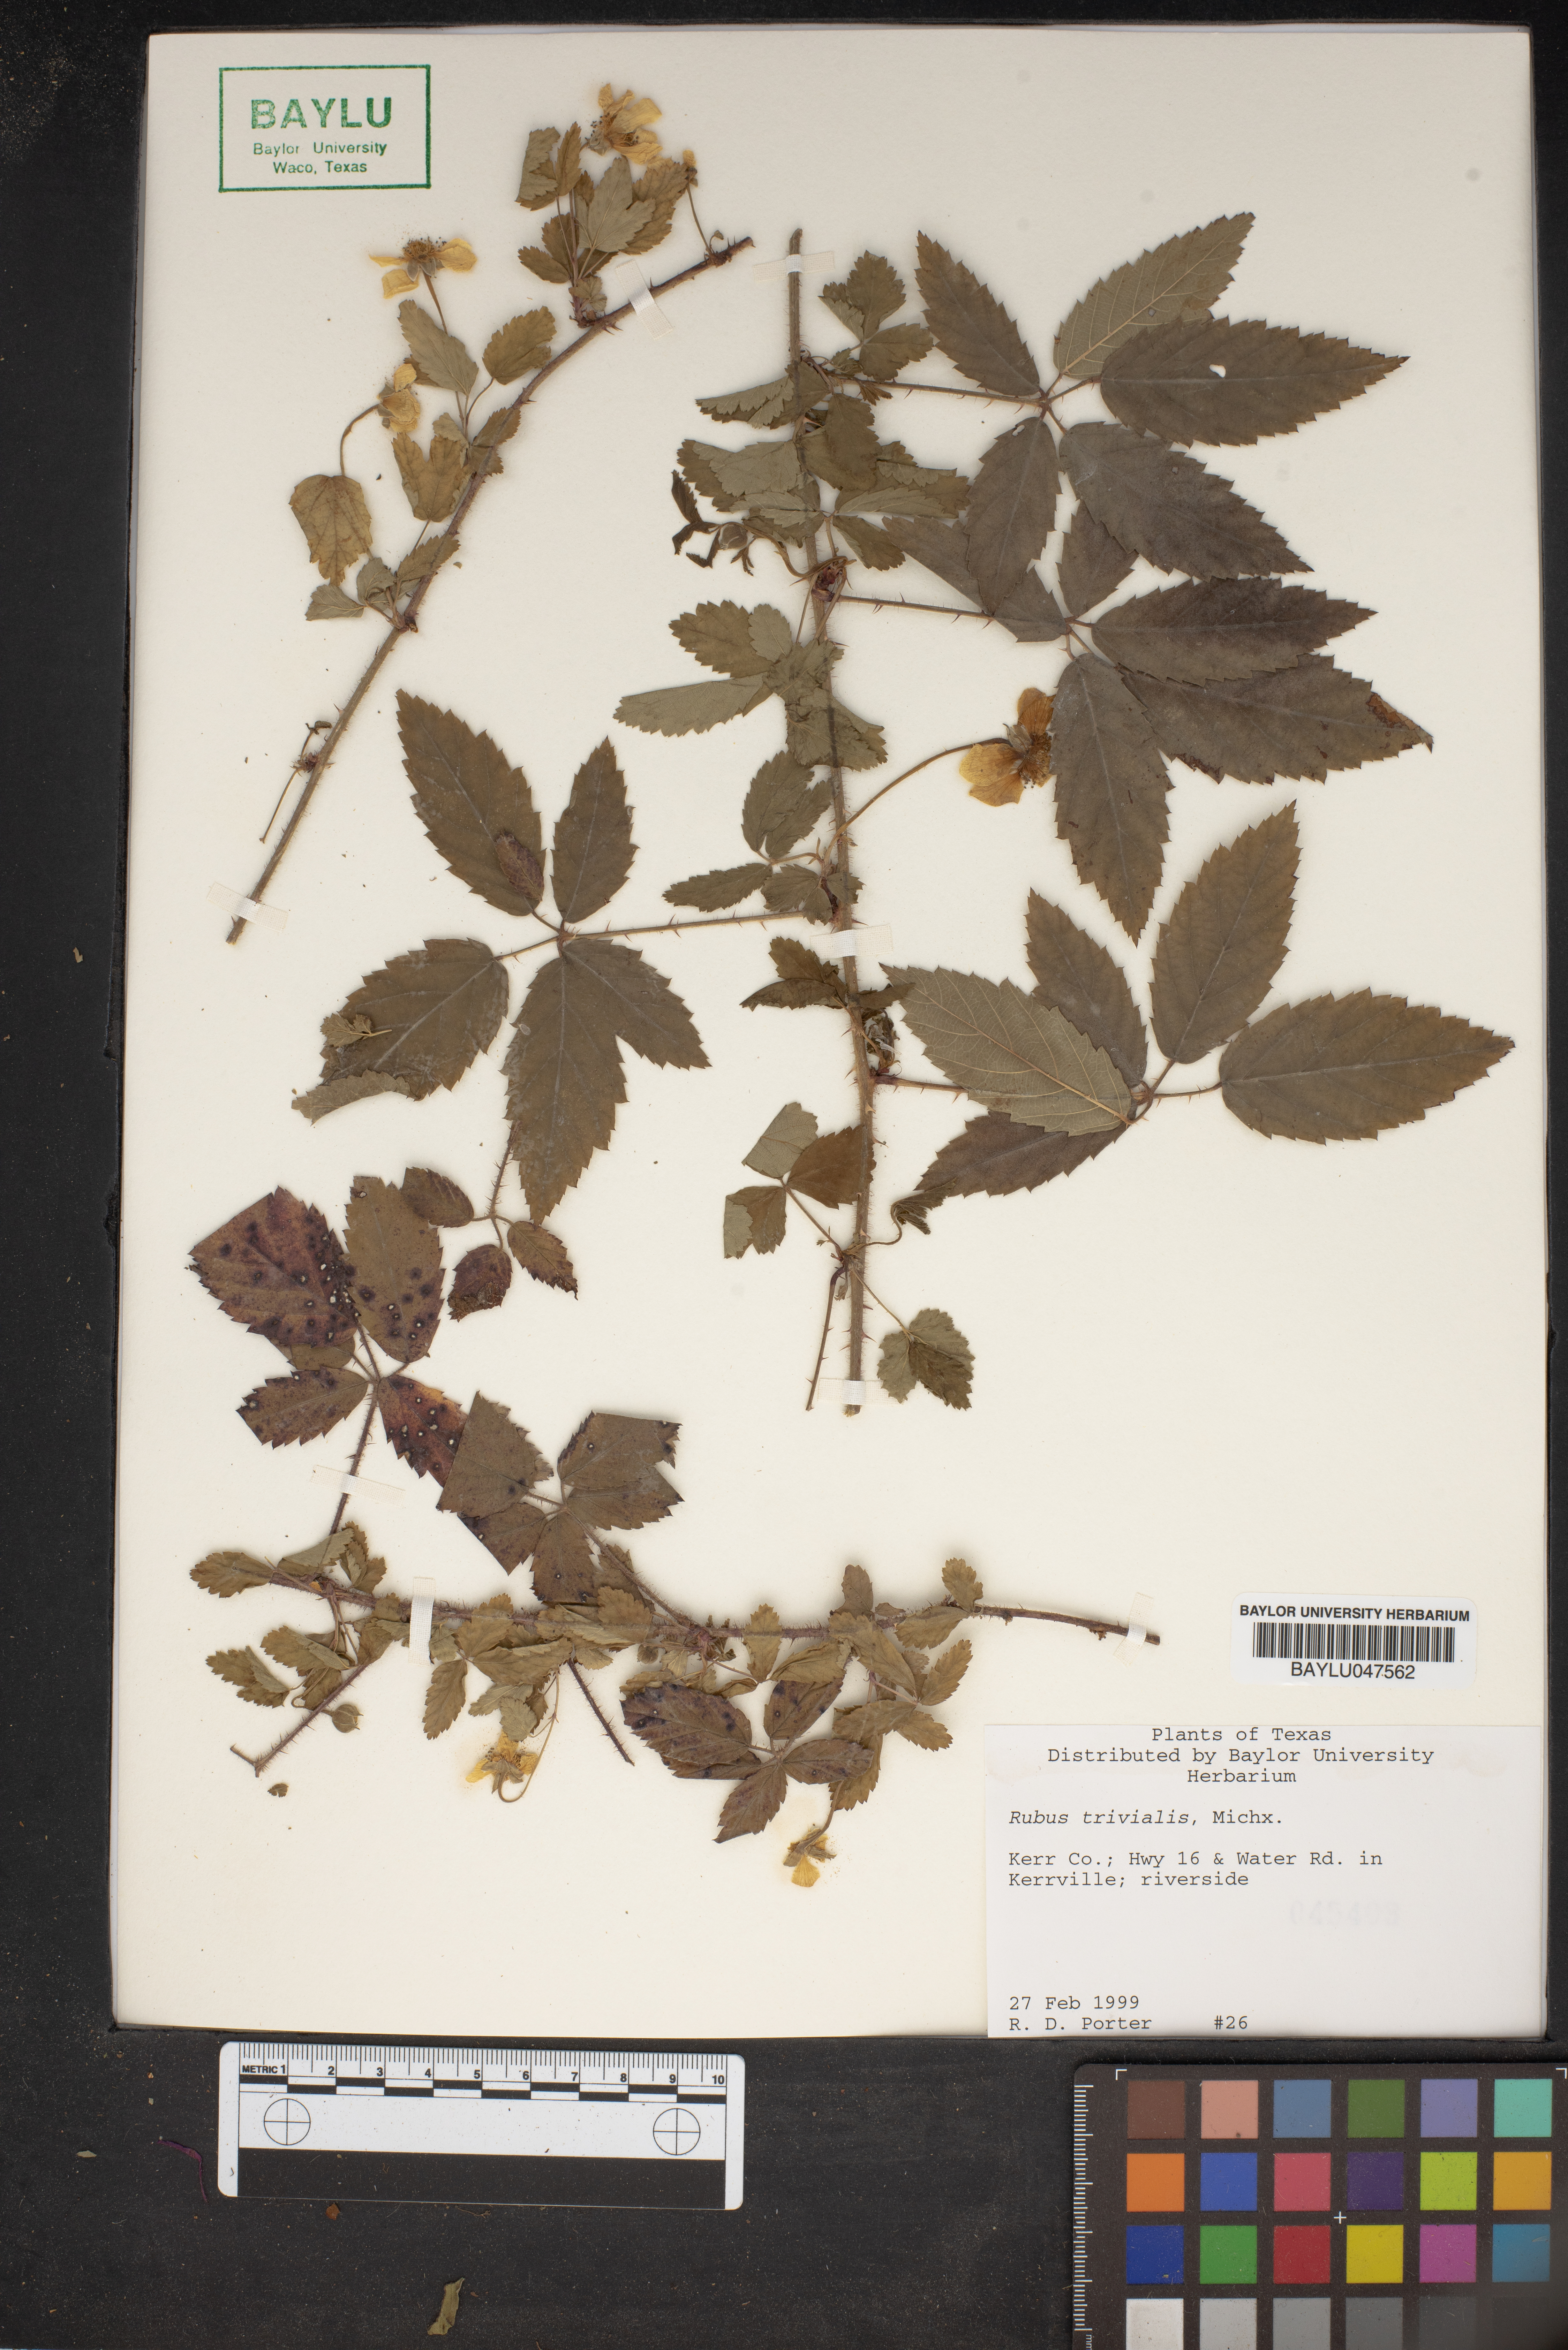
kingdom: Plantae
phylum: Tracheophyta
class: Magnoliopsida
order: Rosales
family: Rosaceae
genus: Rubus
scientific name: Rubus trivialis
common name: Southern dewberry
